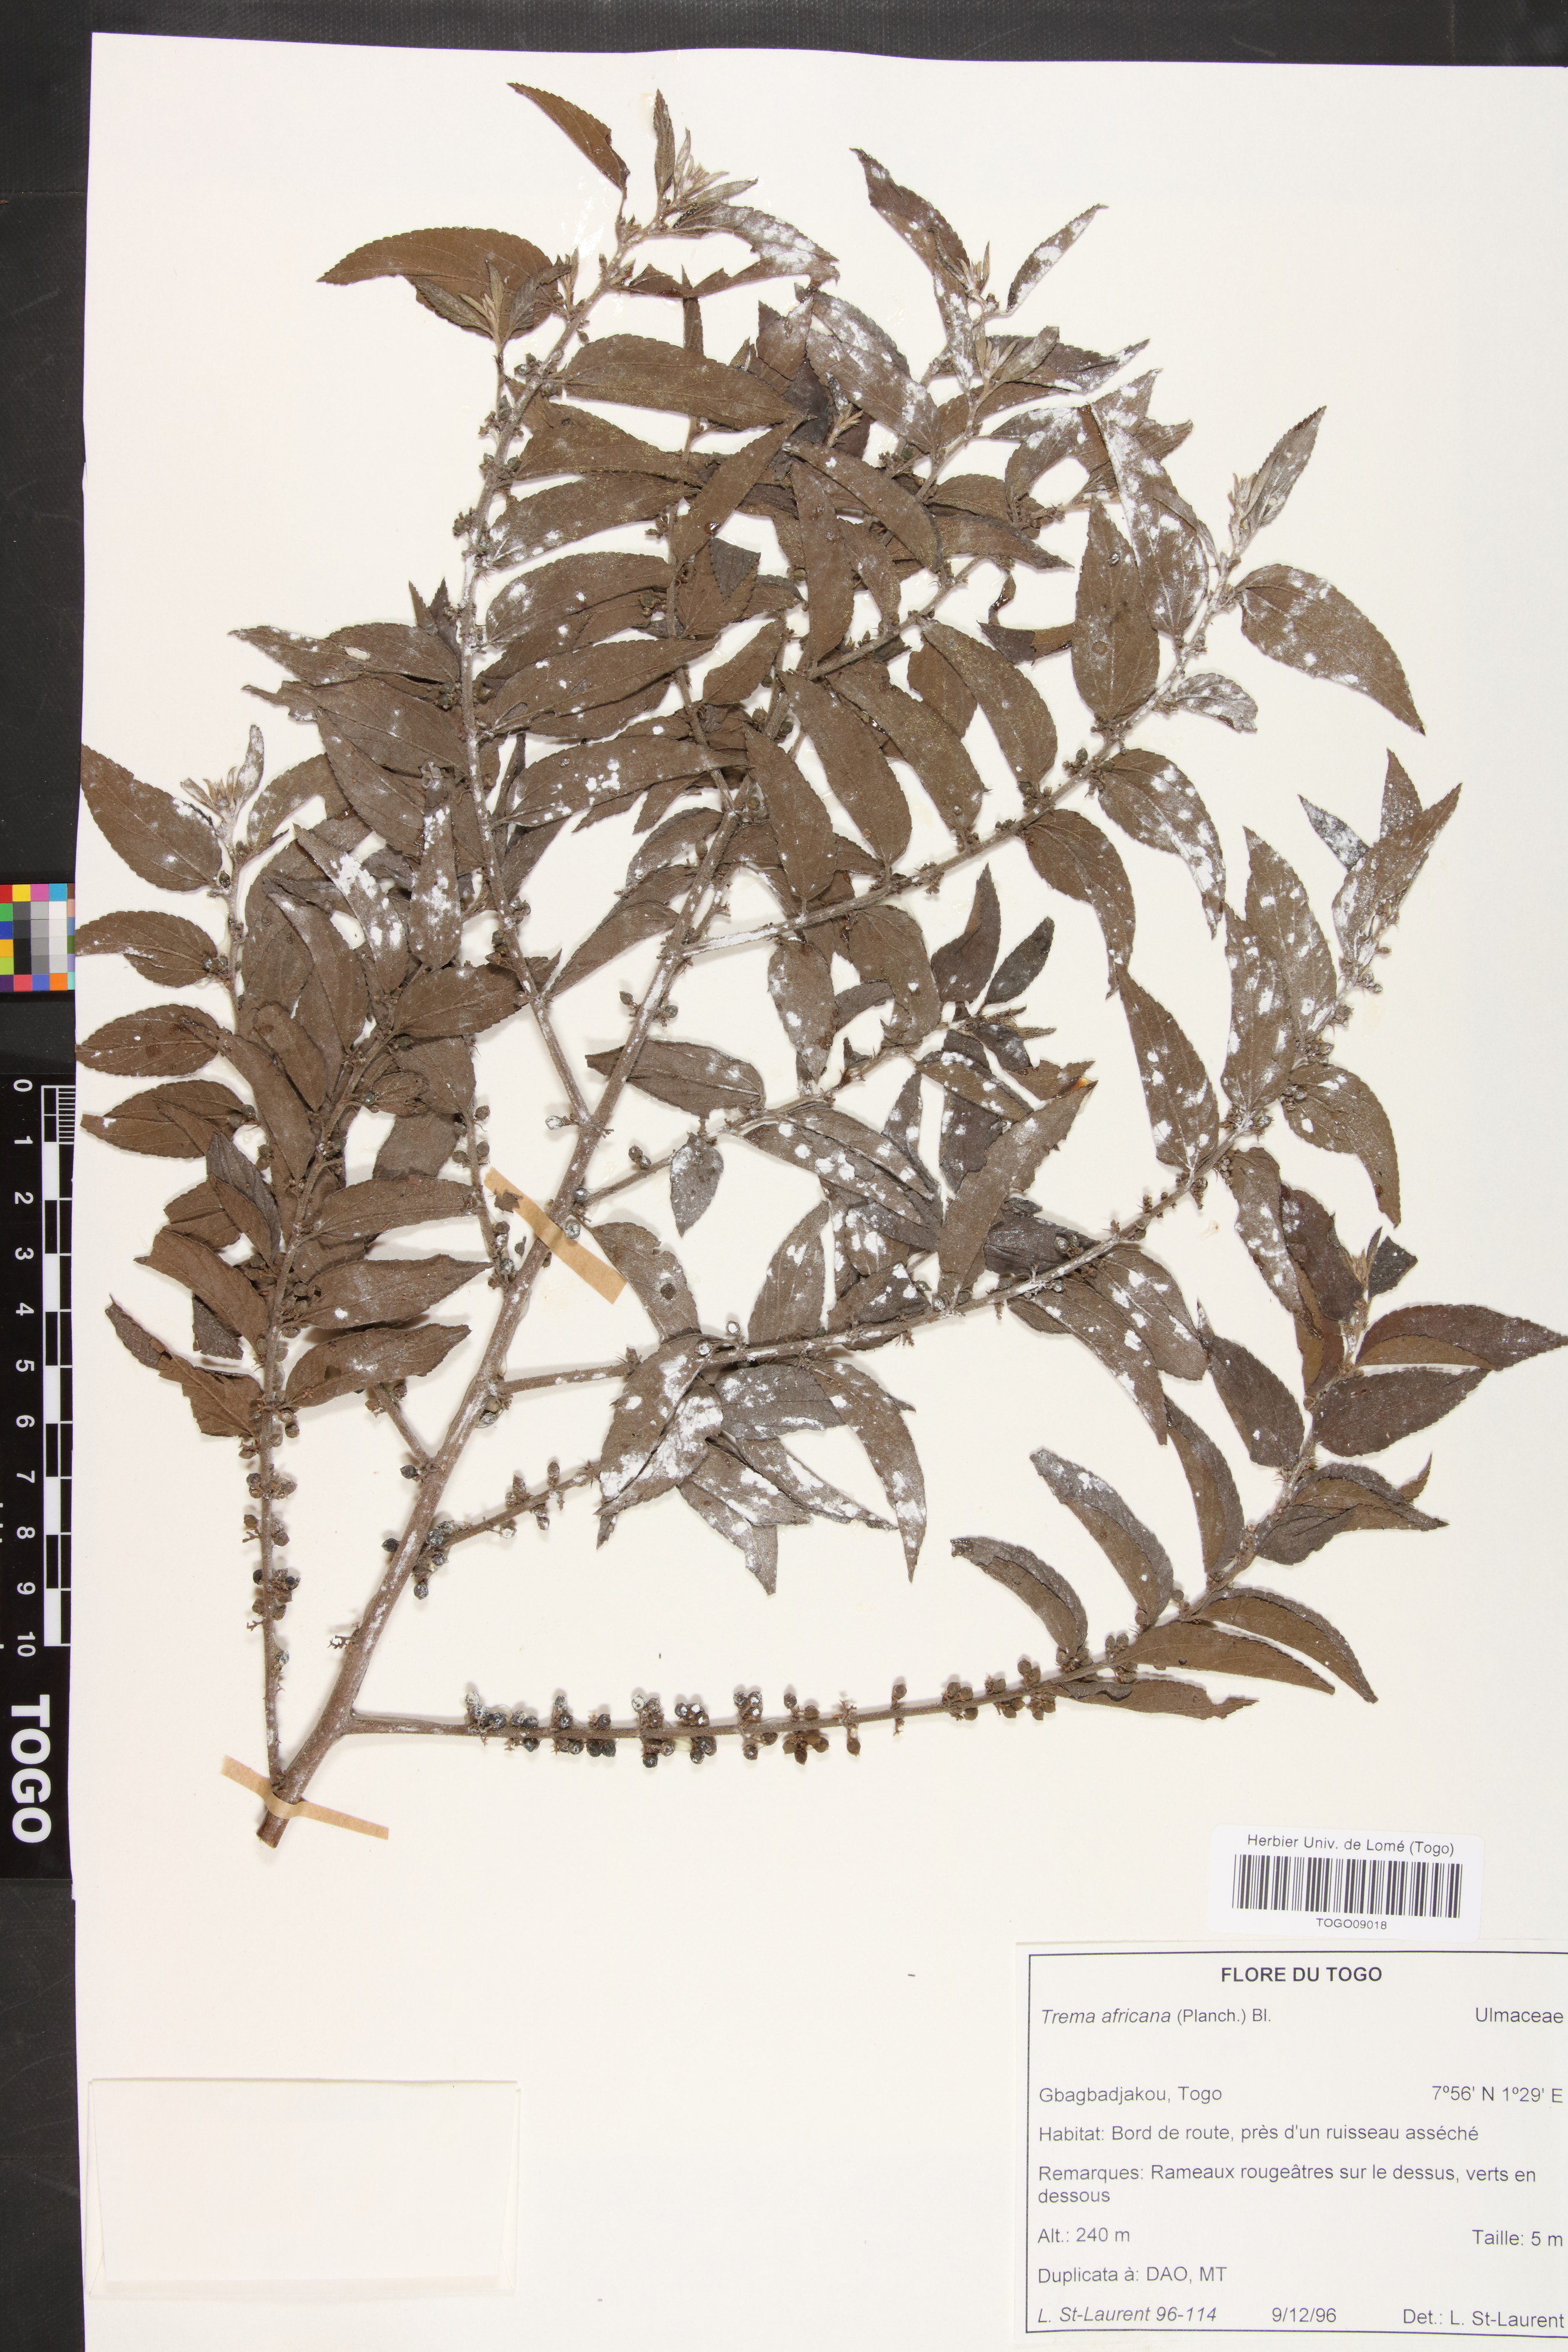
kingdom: Plantae
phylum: Tracheophyta
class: Magnoliopsida
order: Rosales
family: Cannabaceae
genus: Trema
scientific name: Trema orientale
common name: Indian charcoal tree
